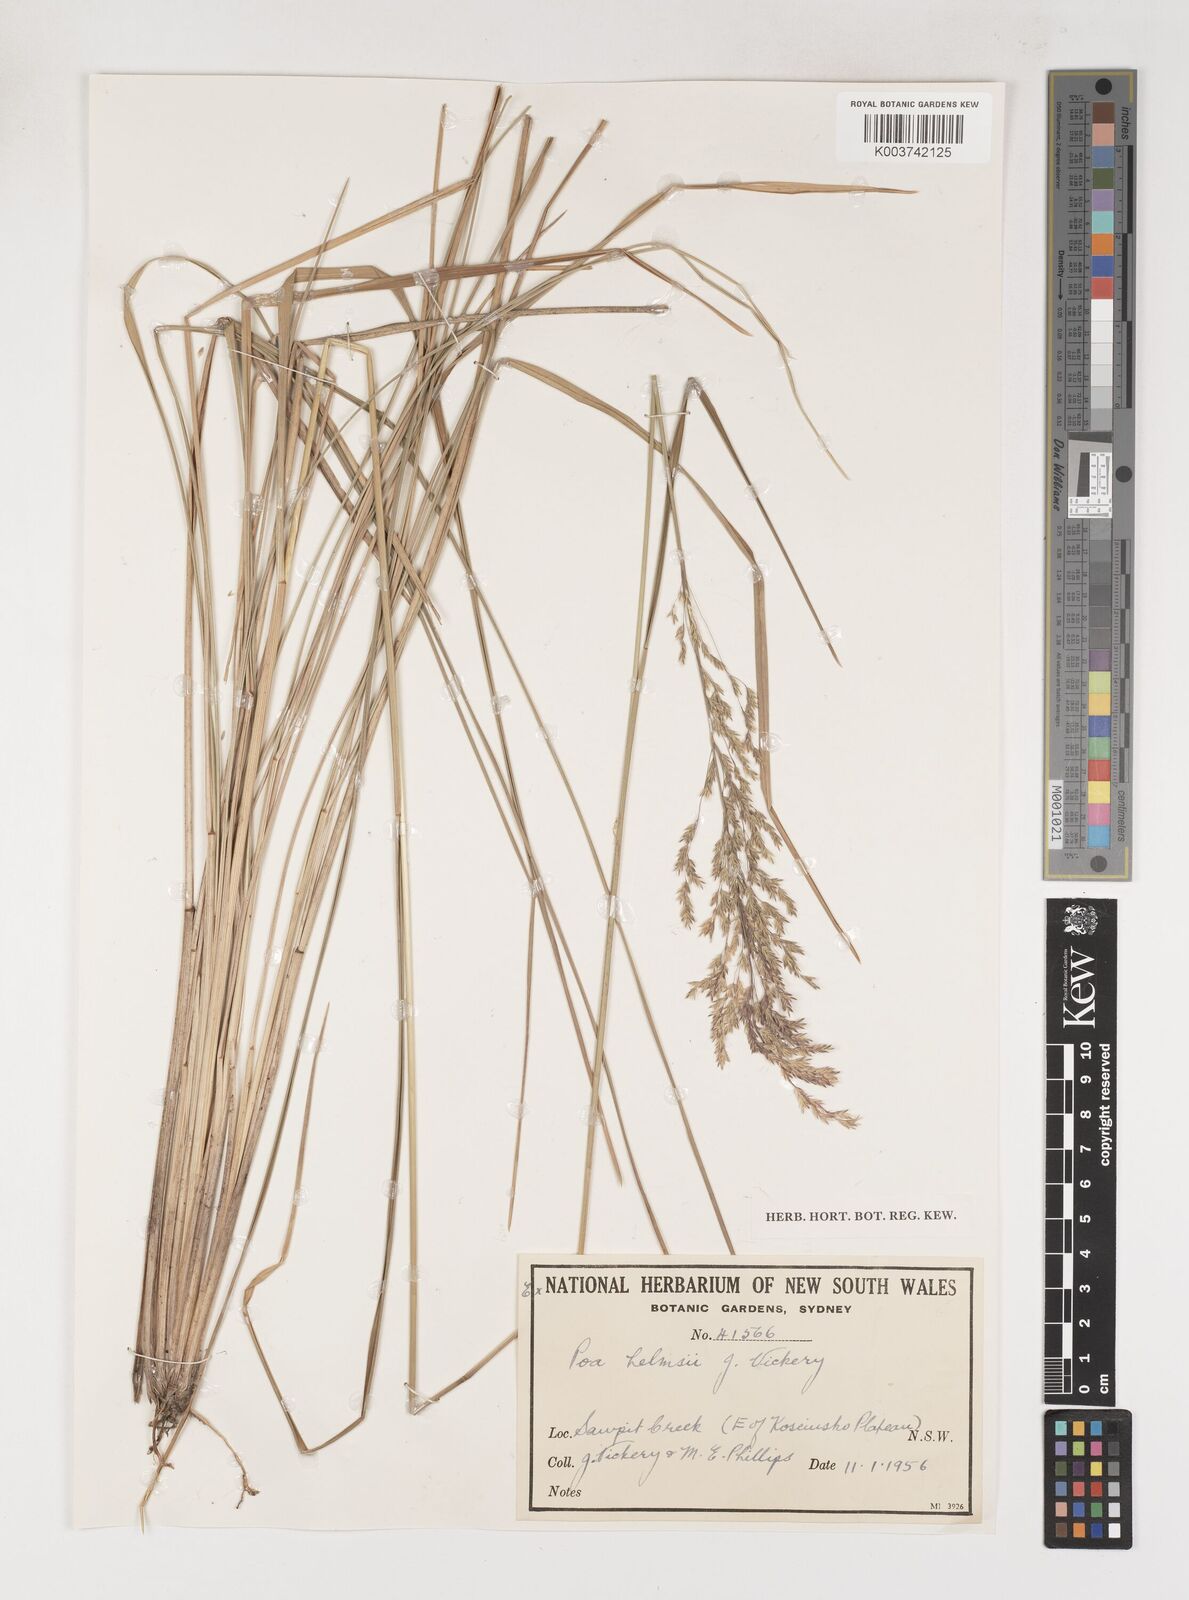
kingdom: Plantae
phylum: Tracheophyta
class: Liliopsida
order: Poales
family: Poaceae
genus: Poa
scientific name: Poa helmsii
